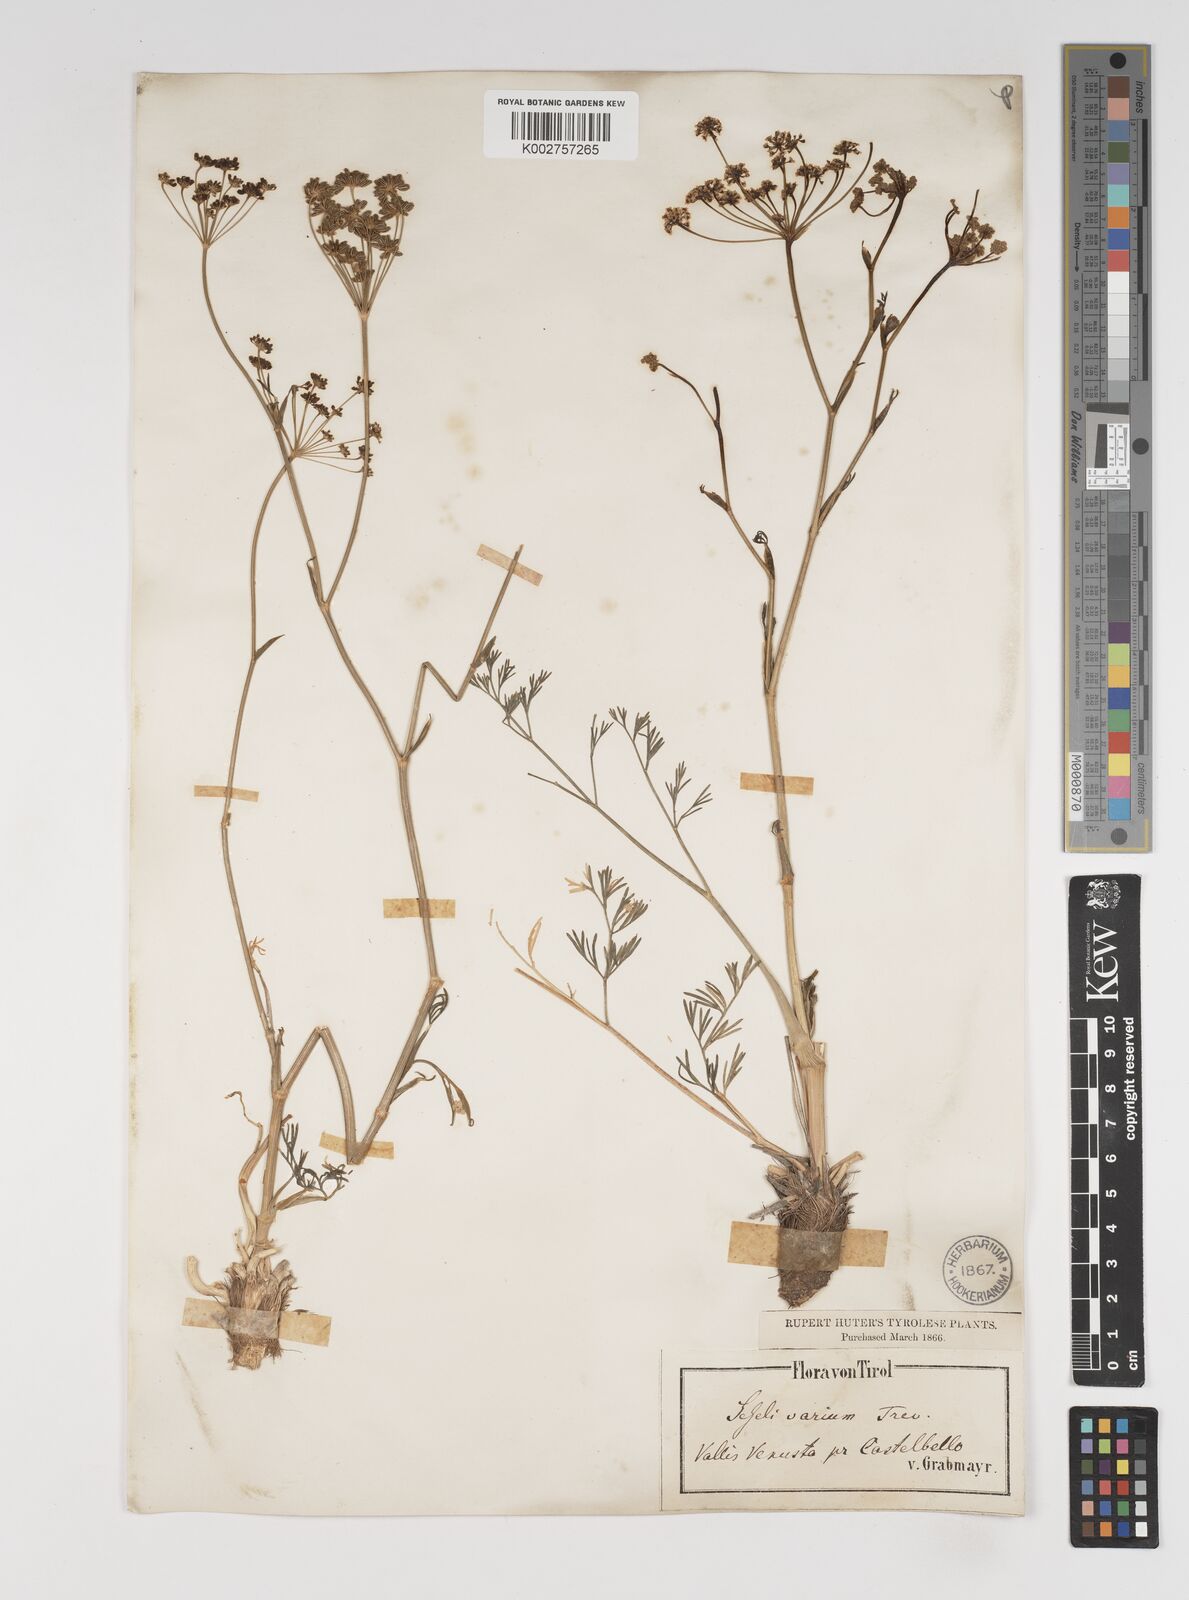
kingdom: Plantae
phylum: Tracheophyta
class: Magnoliopsida
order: Apiales
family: Apiaceae
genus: Seseli
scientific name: Seseli pallasii
